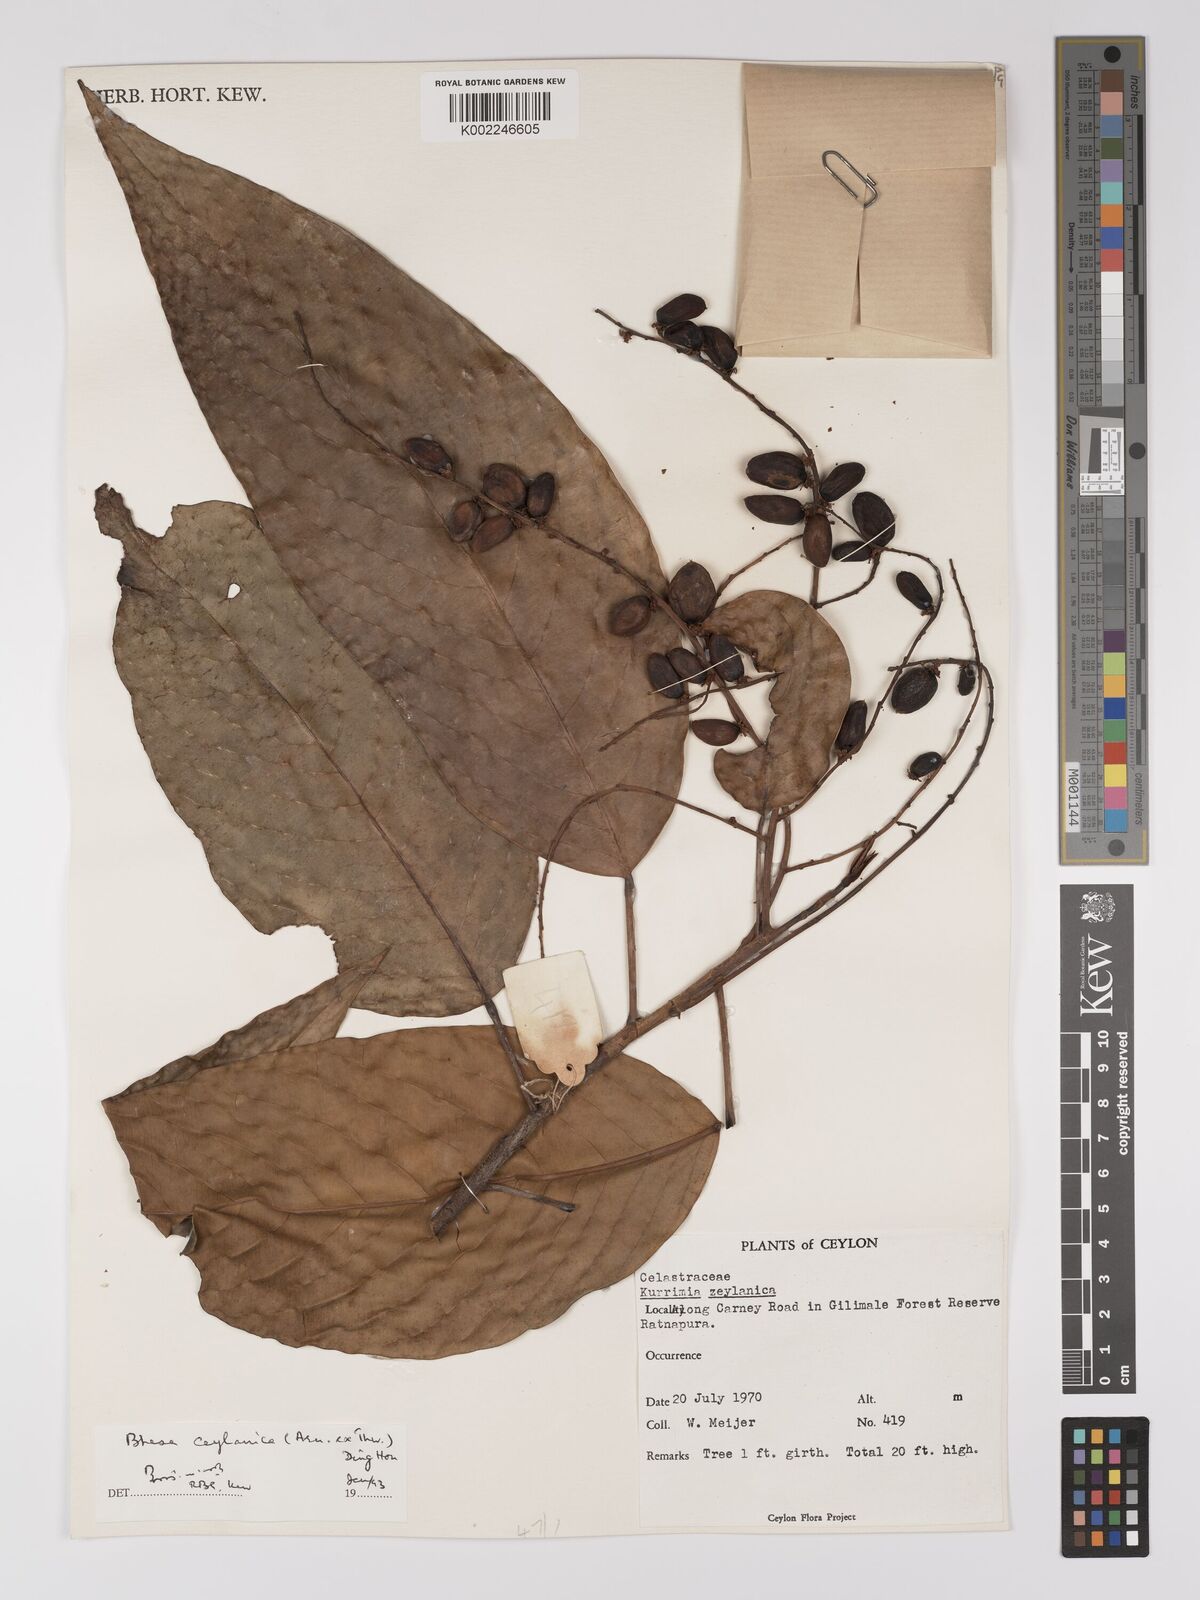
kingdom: Plantae
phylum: Tracheophyta
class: Magnoliopsida
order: Malpighiales
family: Centroplacaceae
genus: Bhesa
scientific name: Bhesa ceylanica
